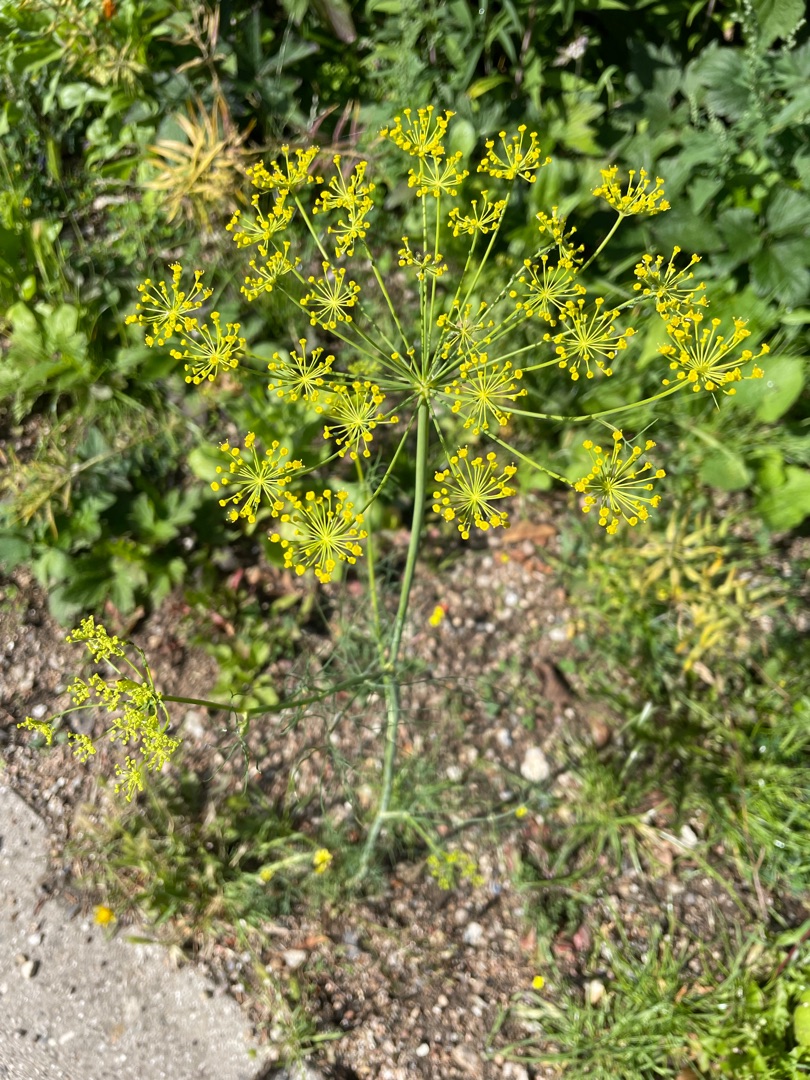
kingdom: Plantae
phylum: Tracheophyta
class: Magnoliopsida
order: Apiales
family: Apiaceae
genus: Anethum
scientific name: Anethum graveolens
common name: Dild
